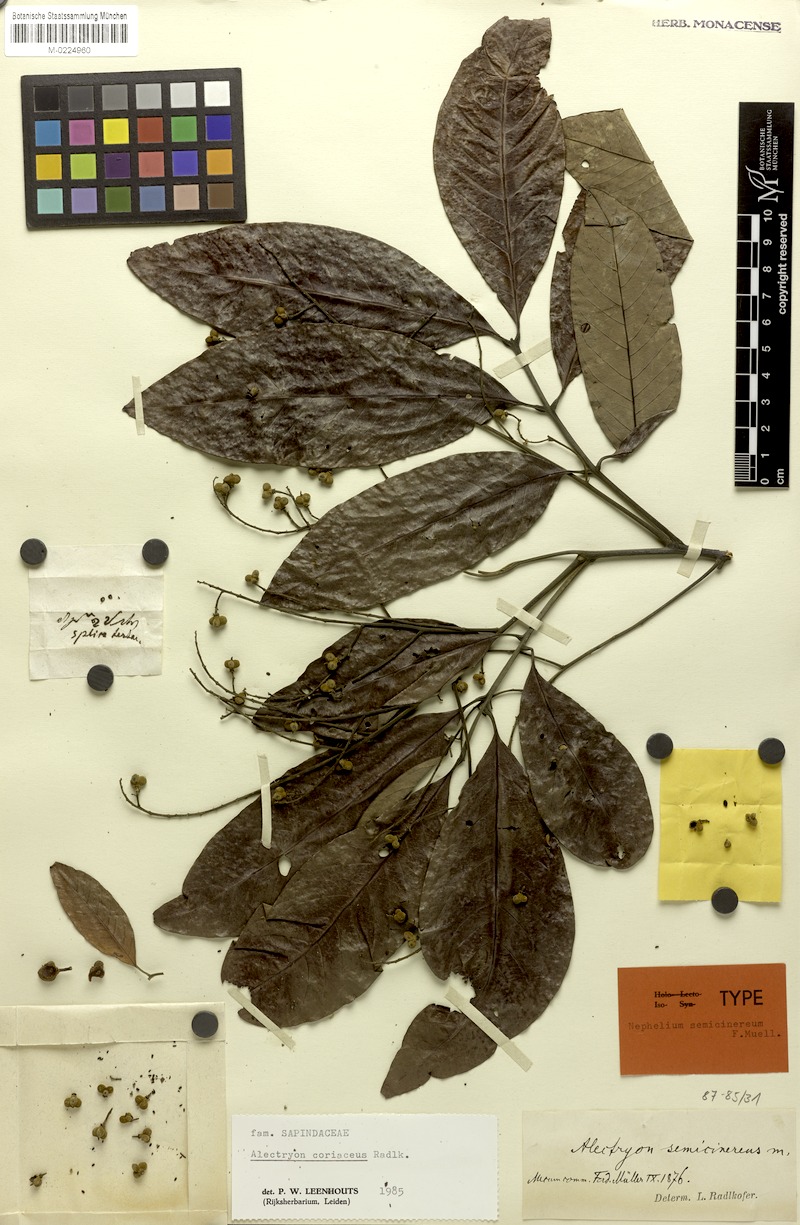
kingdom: Plantae
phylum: Tracheophyta
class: Magnoliopsida
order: Sapindales
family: Sapindaceae
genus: Alectryon
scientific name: Alectryon coriaceus
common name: Beach alectryon
